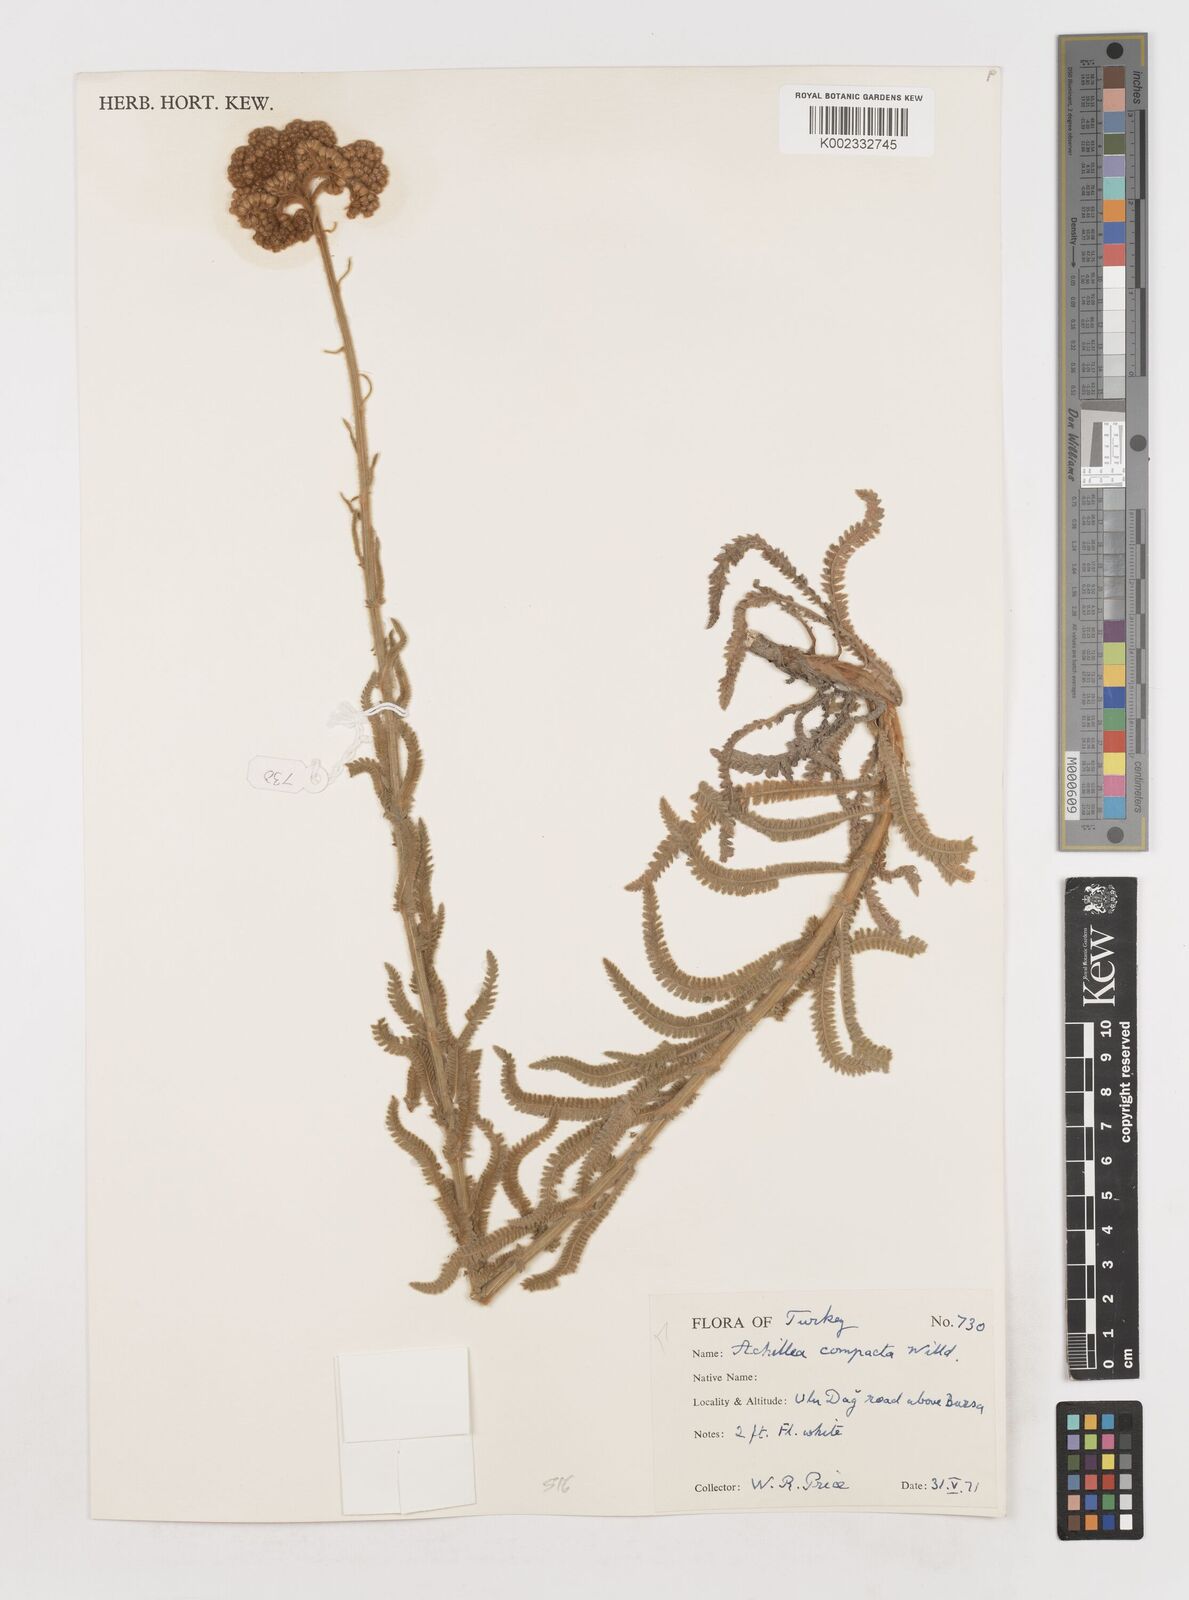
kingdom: Plantae
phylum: Tracheophyta
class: Magnoliopsida
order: Asterales
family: Asteraceae
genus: Achillea
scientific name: Achillea coarctata
